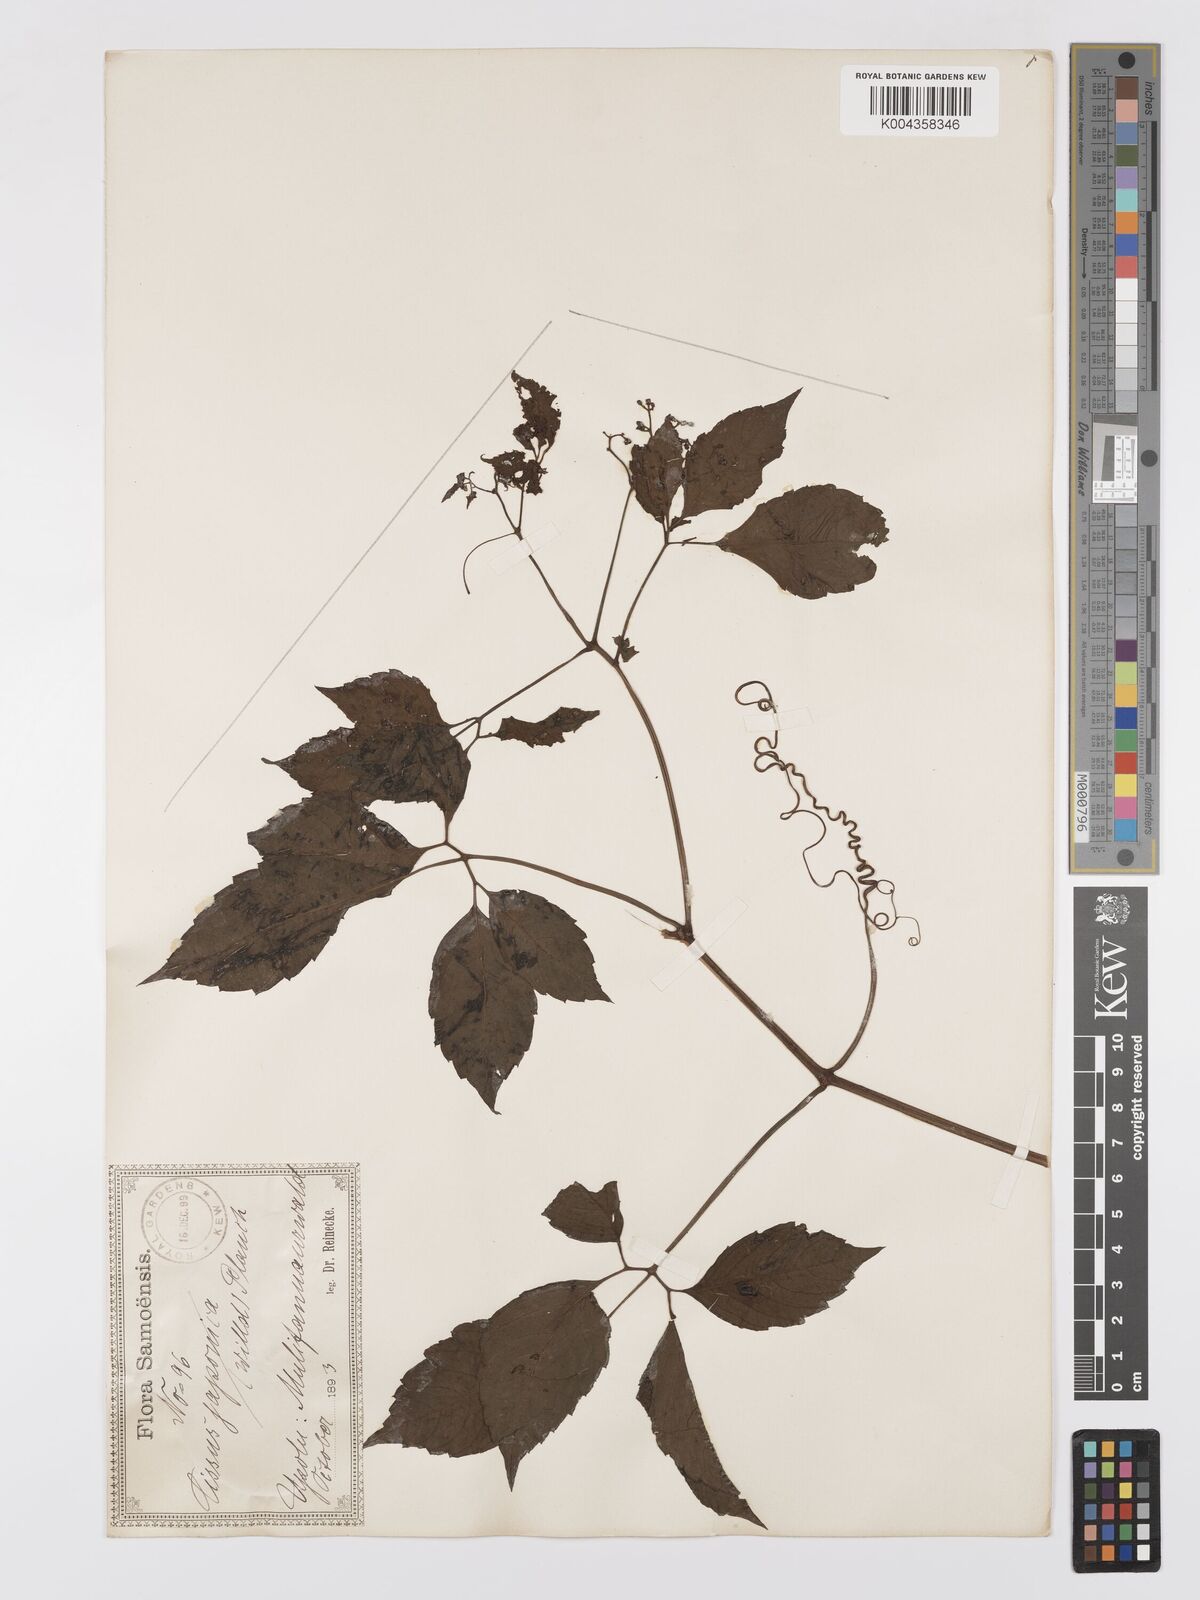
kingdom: Plantae
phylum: Tracheophyta
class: Magnoliopsida
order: Vitales
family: Vitaceae
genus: Cayratia
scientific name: Cayratia
